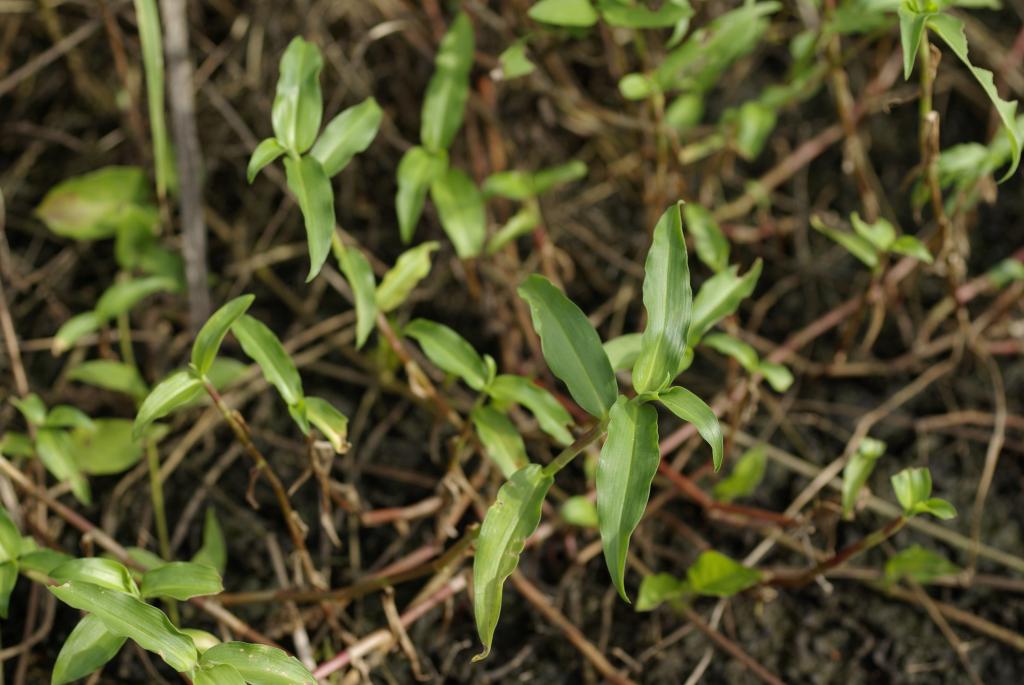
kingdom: Plantae
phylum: Tracheophyta
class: Liliopsida
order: Commelinales
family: Commelinaceae
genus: Murdannia
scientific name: Murdannia loriformis
